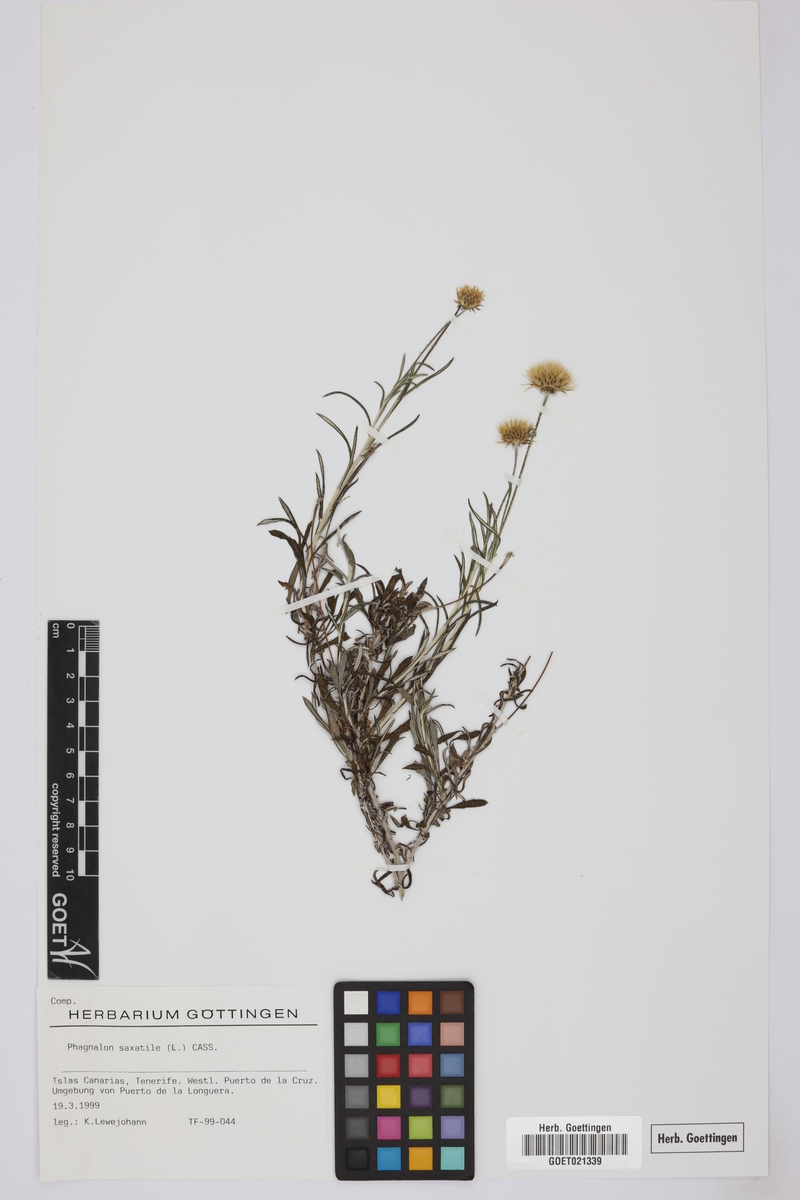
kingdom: Plantae
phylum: Tracheophyta
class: Magnoliopsida
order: Asterales
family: Asteraceae
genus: Phagnalon
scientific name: Phagnalon saxatile
